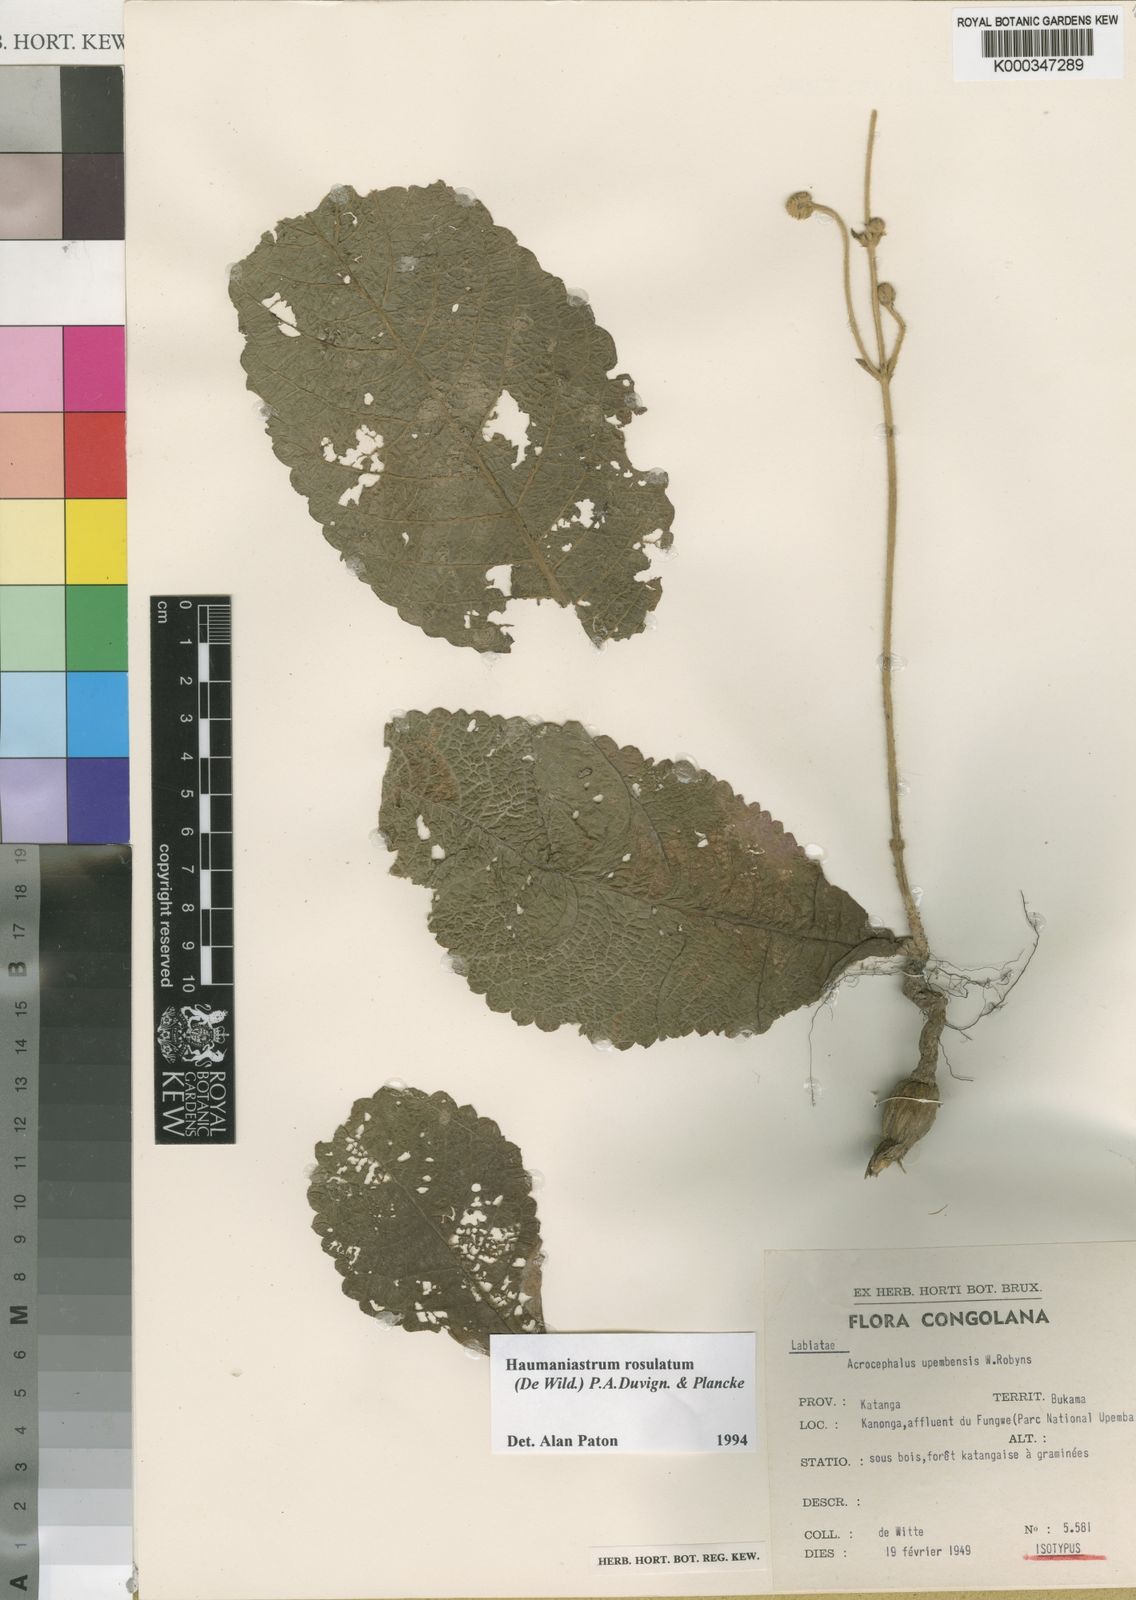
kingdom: Plantae
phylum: Tracheophyta
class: Magnoliopsida
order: Lamiales
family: Lamiaceae
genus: Haumaniastrum
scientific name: Haumaniastrum rosulatum
